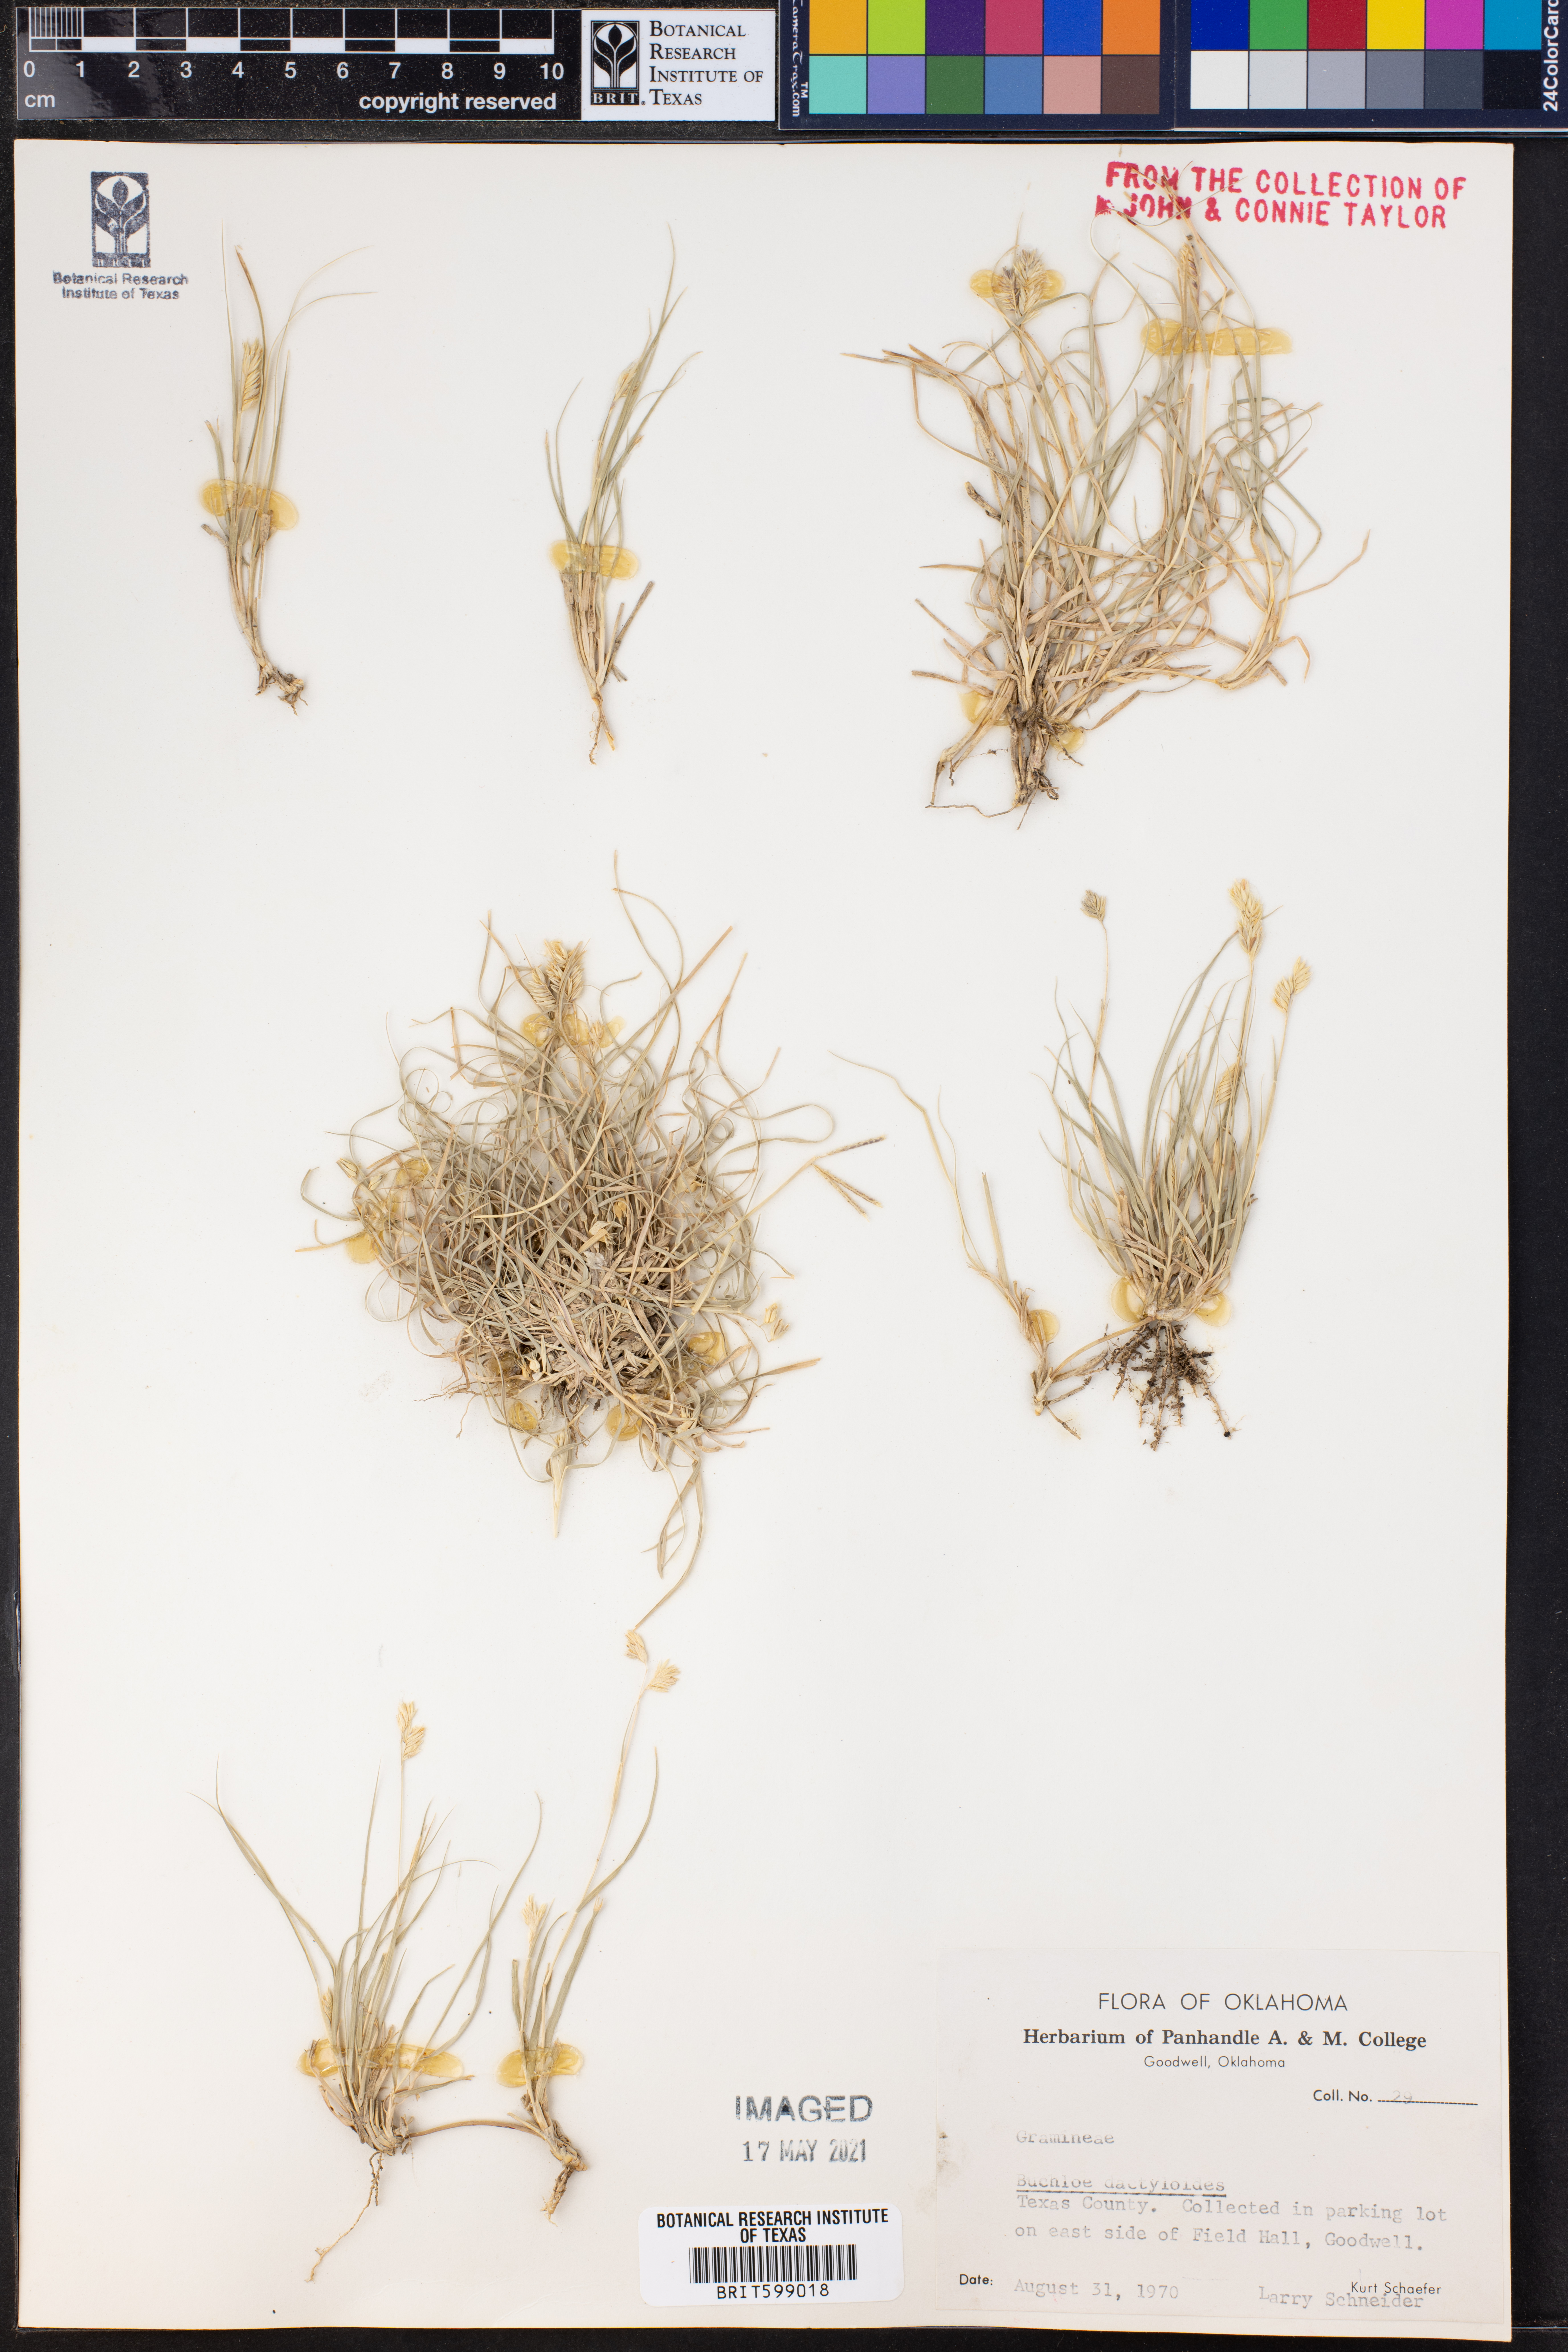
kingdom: Plantae
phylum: Tracheophyta
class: Liliopsida
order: Poales
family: Poaceae
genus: Bouteloua
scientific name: Bouteloua dactyloides
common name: Buffalo grass
